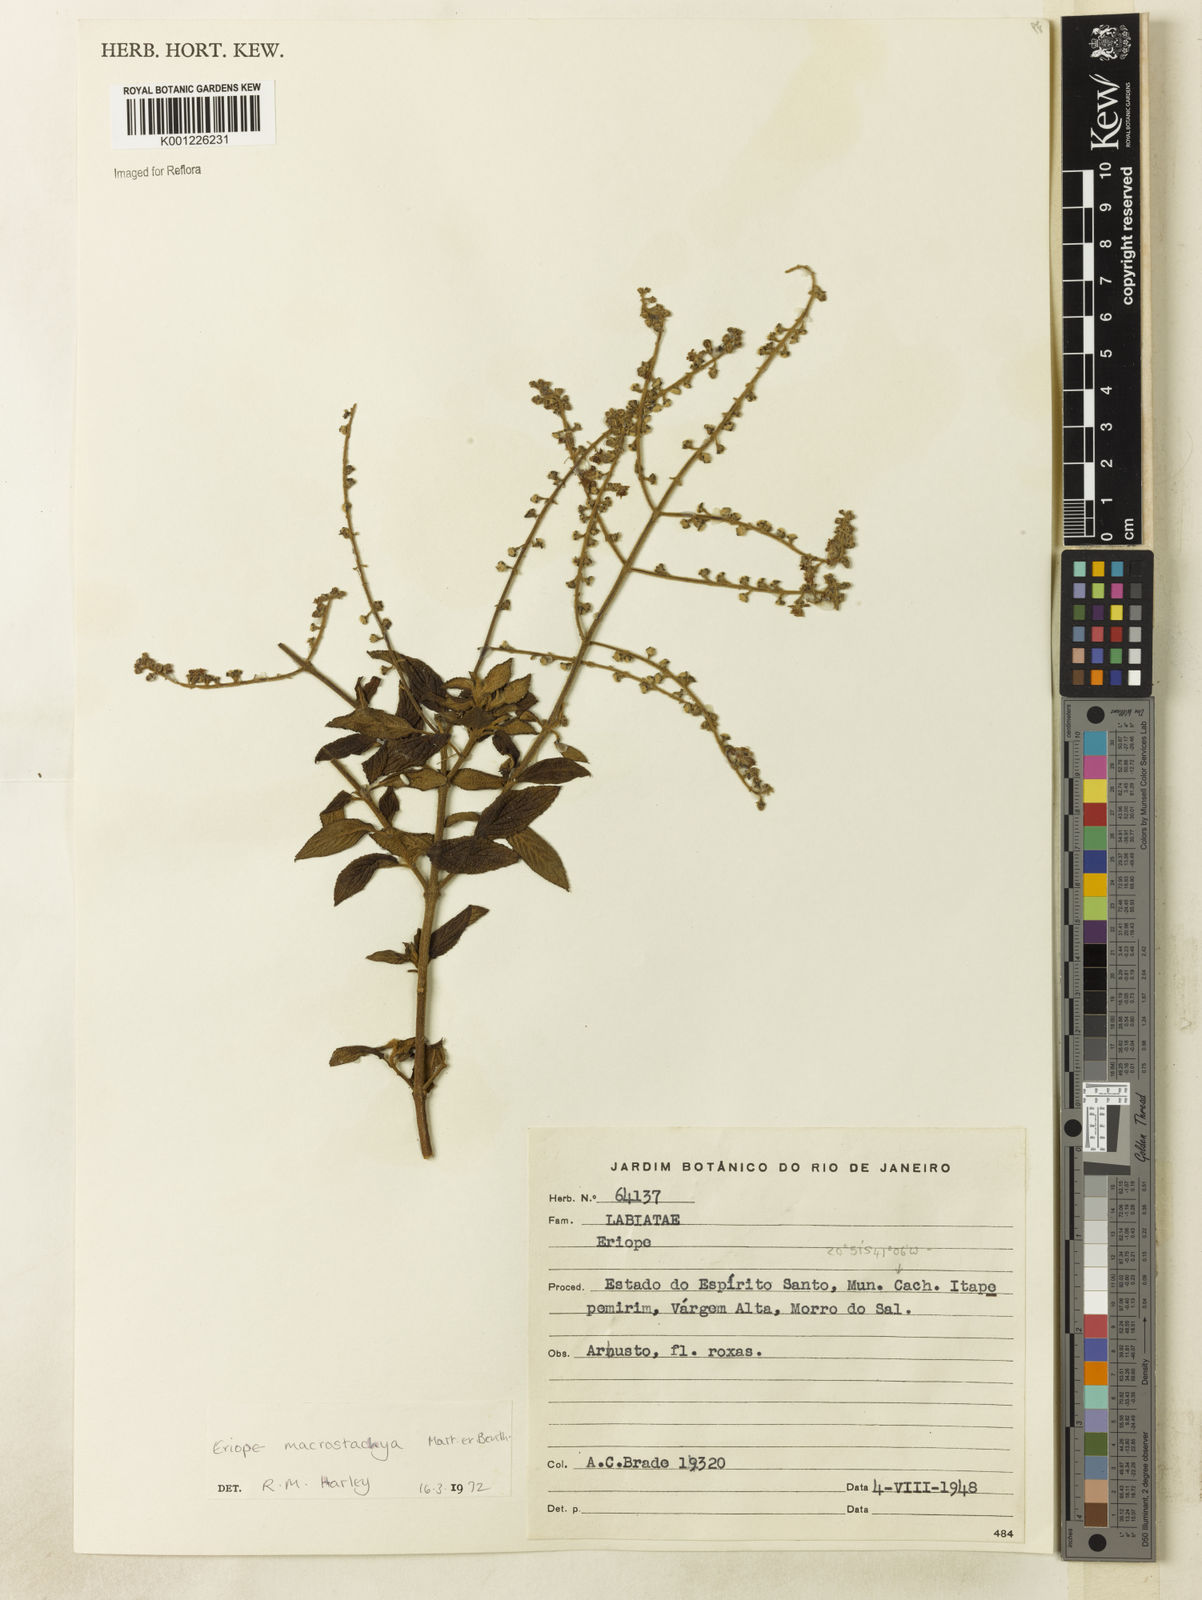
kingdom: Plantae
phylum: Tracheophyta
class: Magnoliopsida
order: Lamiales
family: Lamiaceae
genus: Eriope
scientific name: Eriope macrostachya
